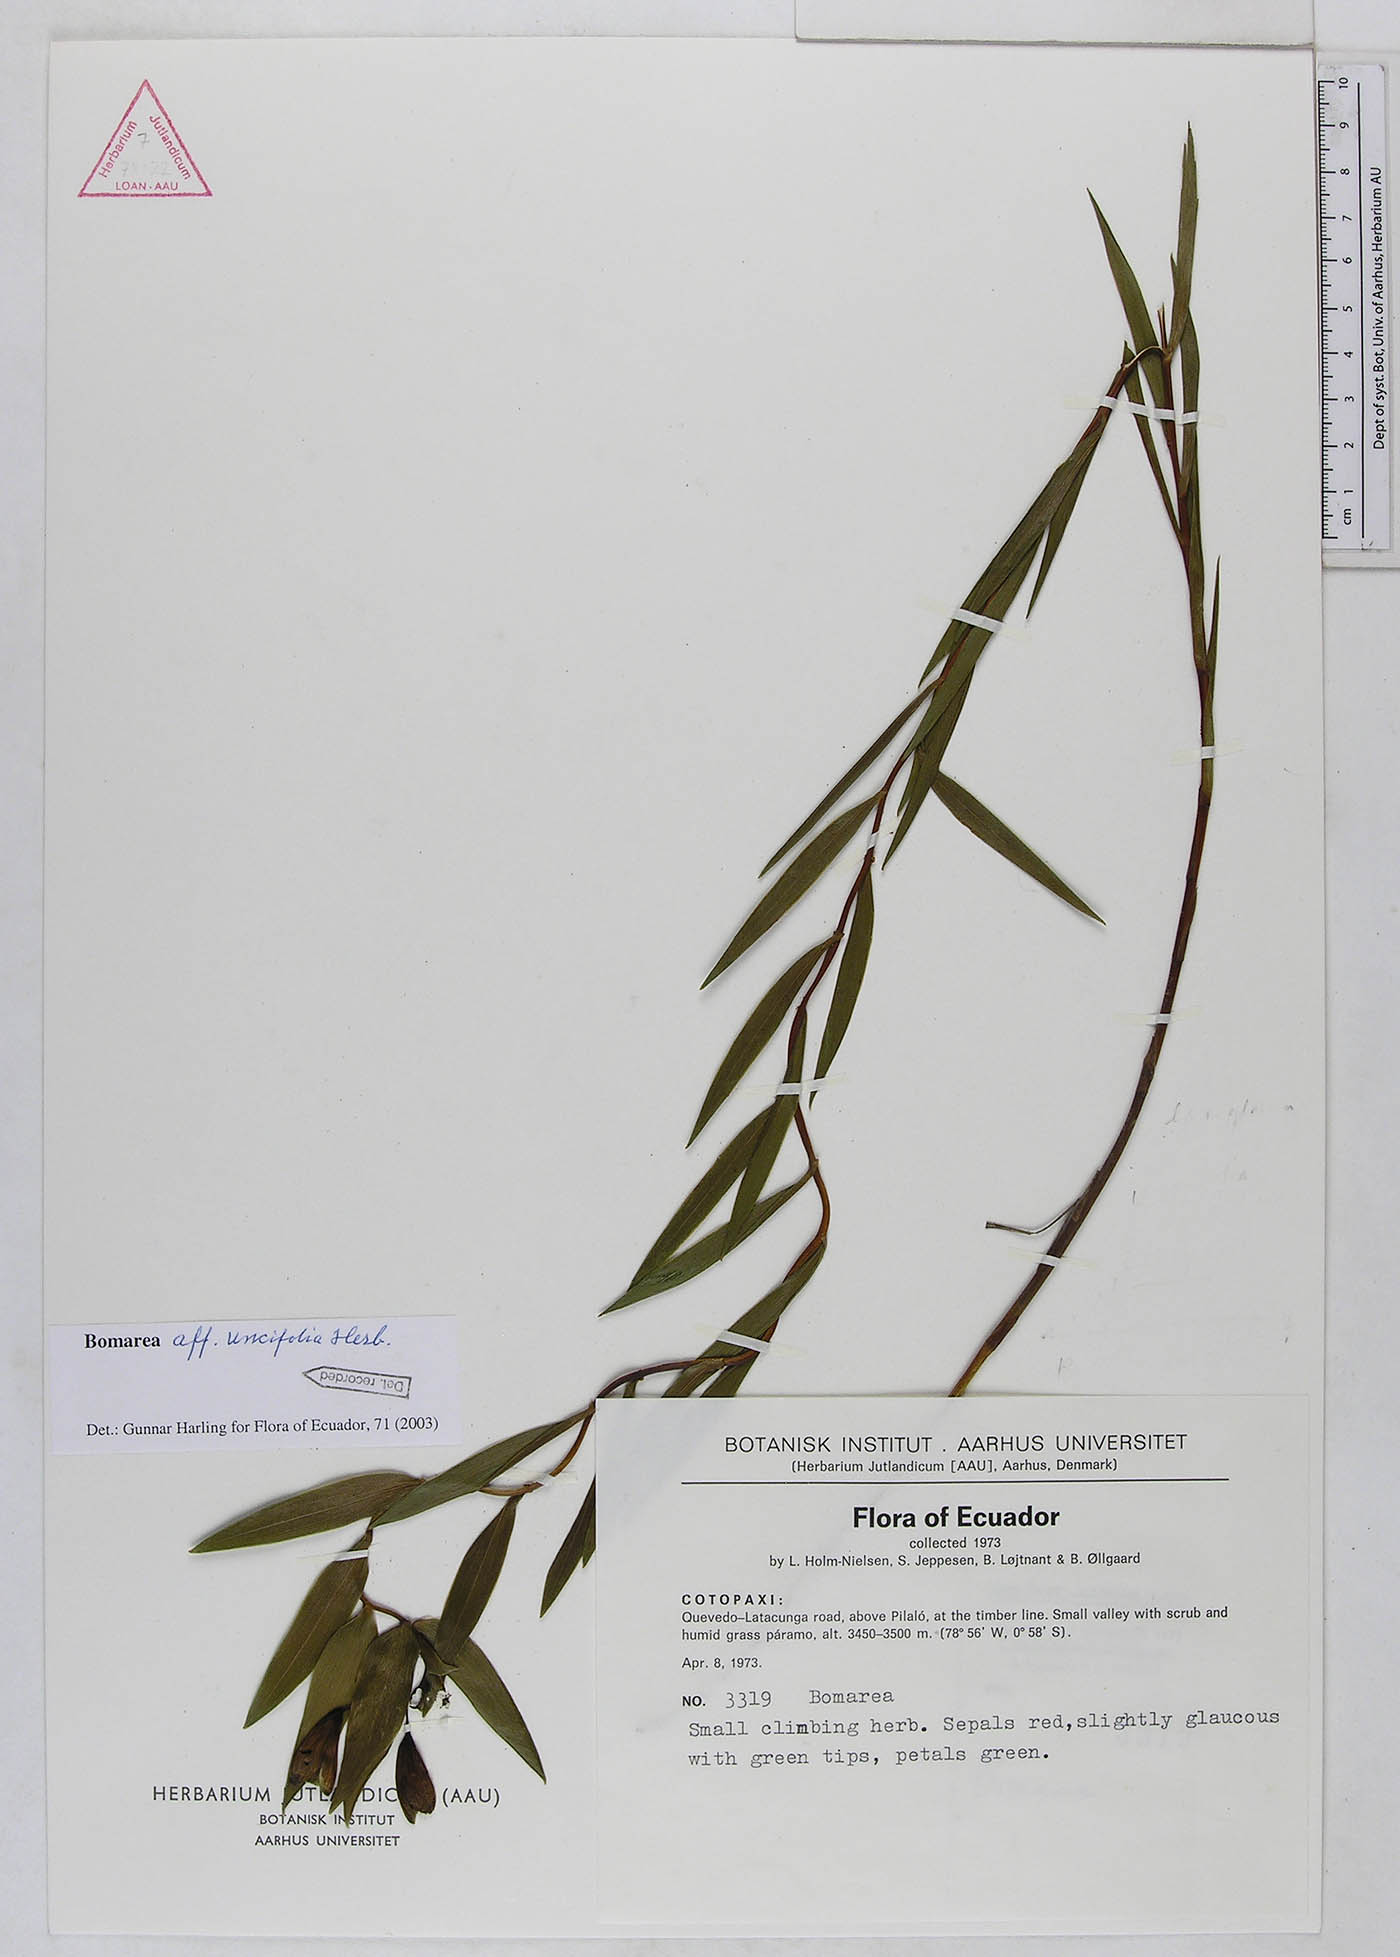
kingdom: Plantae
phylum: Tracheophyta
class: Liliopsida
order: Liliales
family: Alstroemeriaceae
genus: Bomarea
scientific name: Bomarea uncifolia
